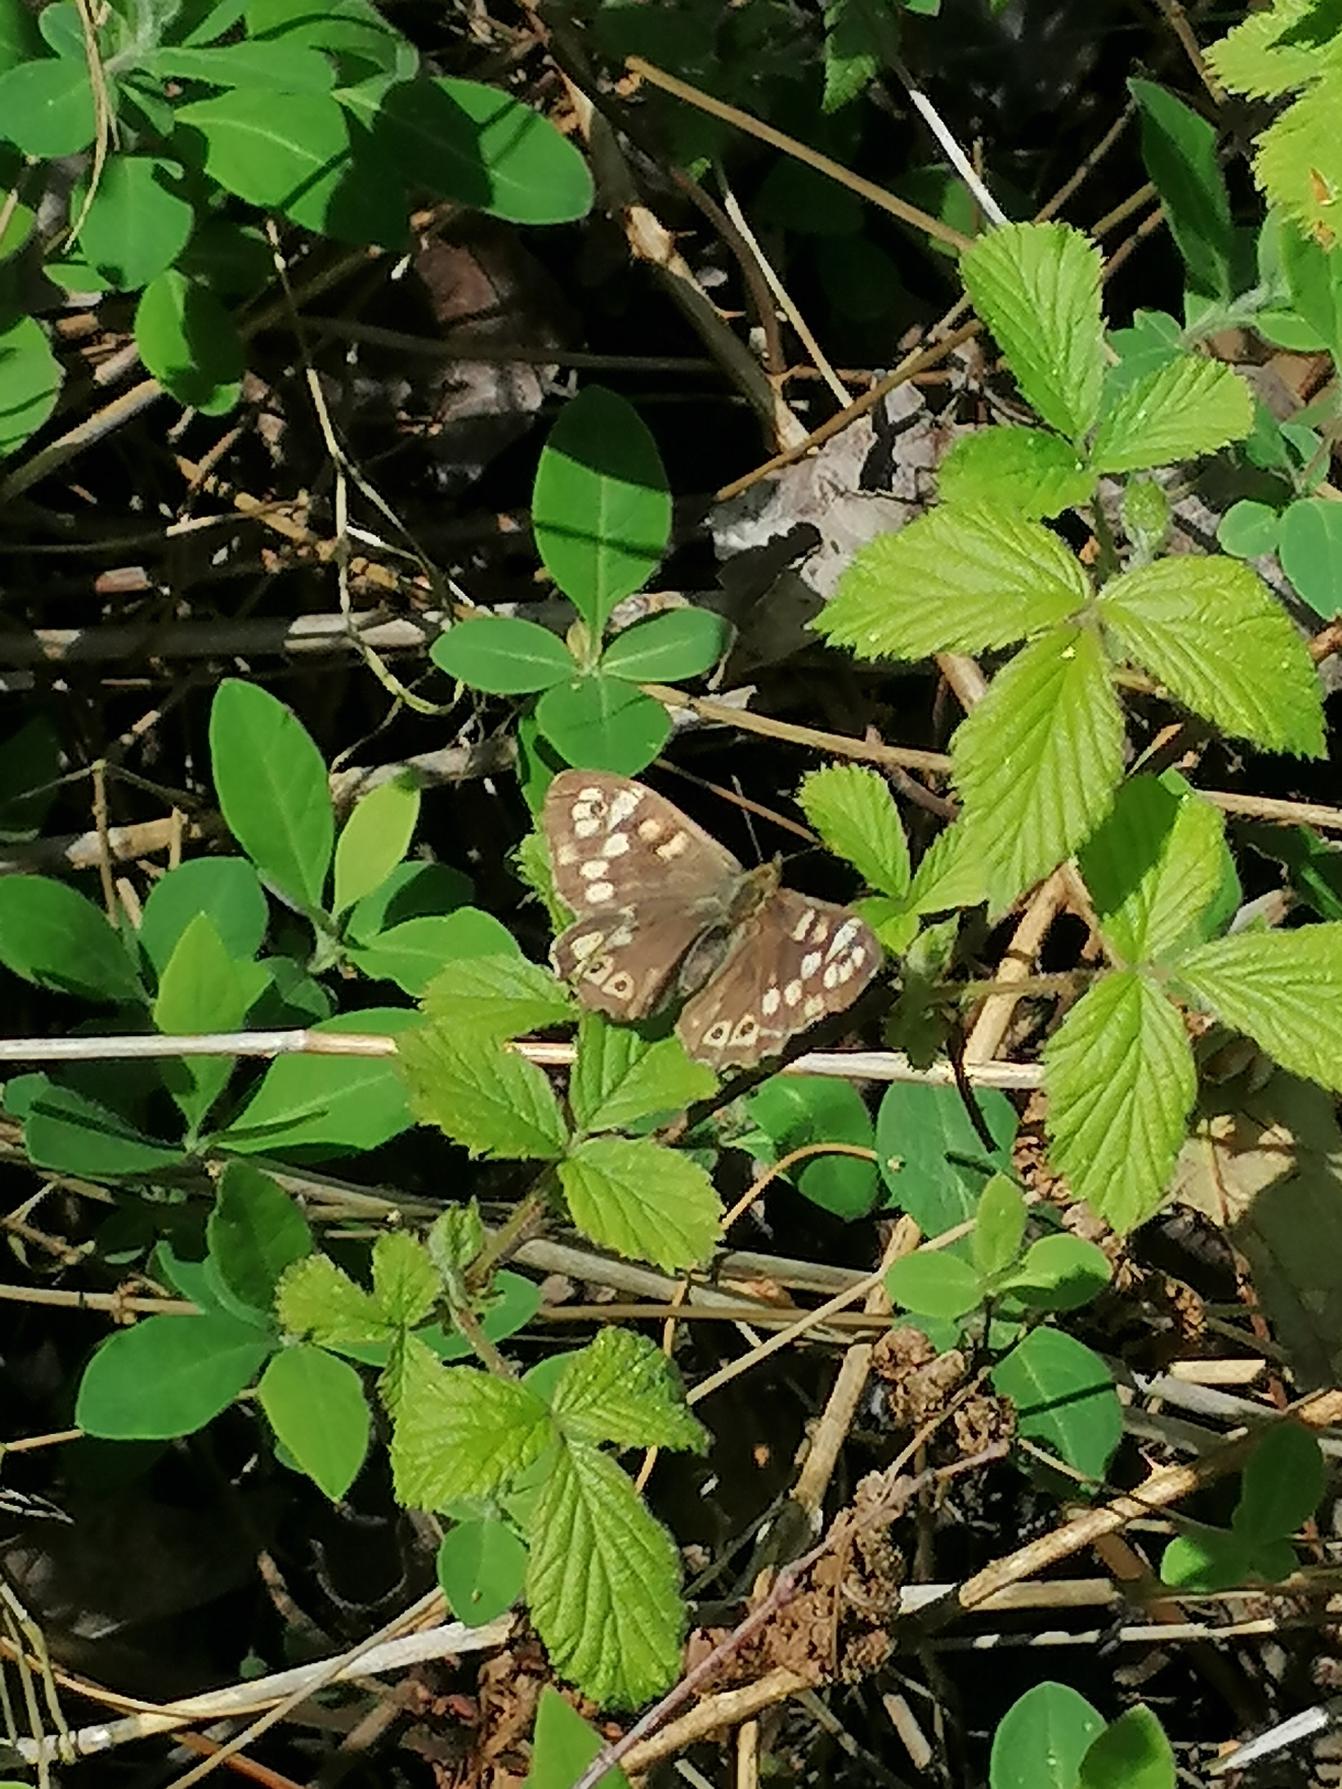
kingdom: Animalia
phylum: Arthropoda
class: Insecta
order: Lepidoptera
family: Nymphalidae
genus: Pararge
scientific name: Pararge aegeria
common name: Skovrandøje
